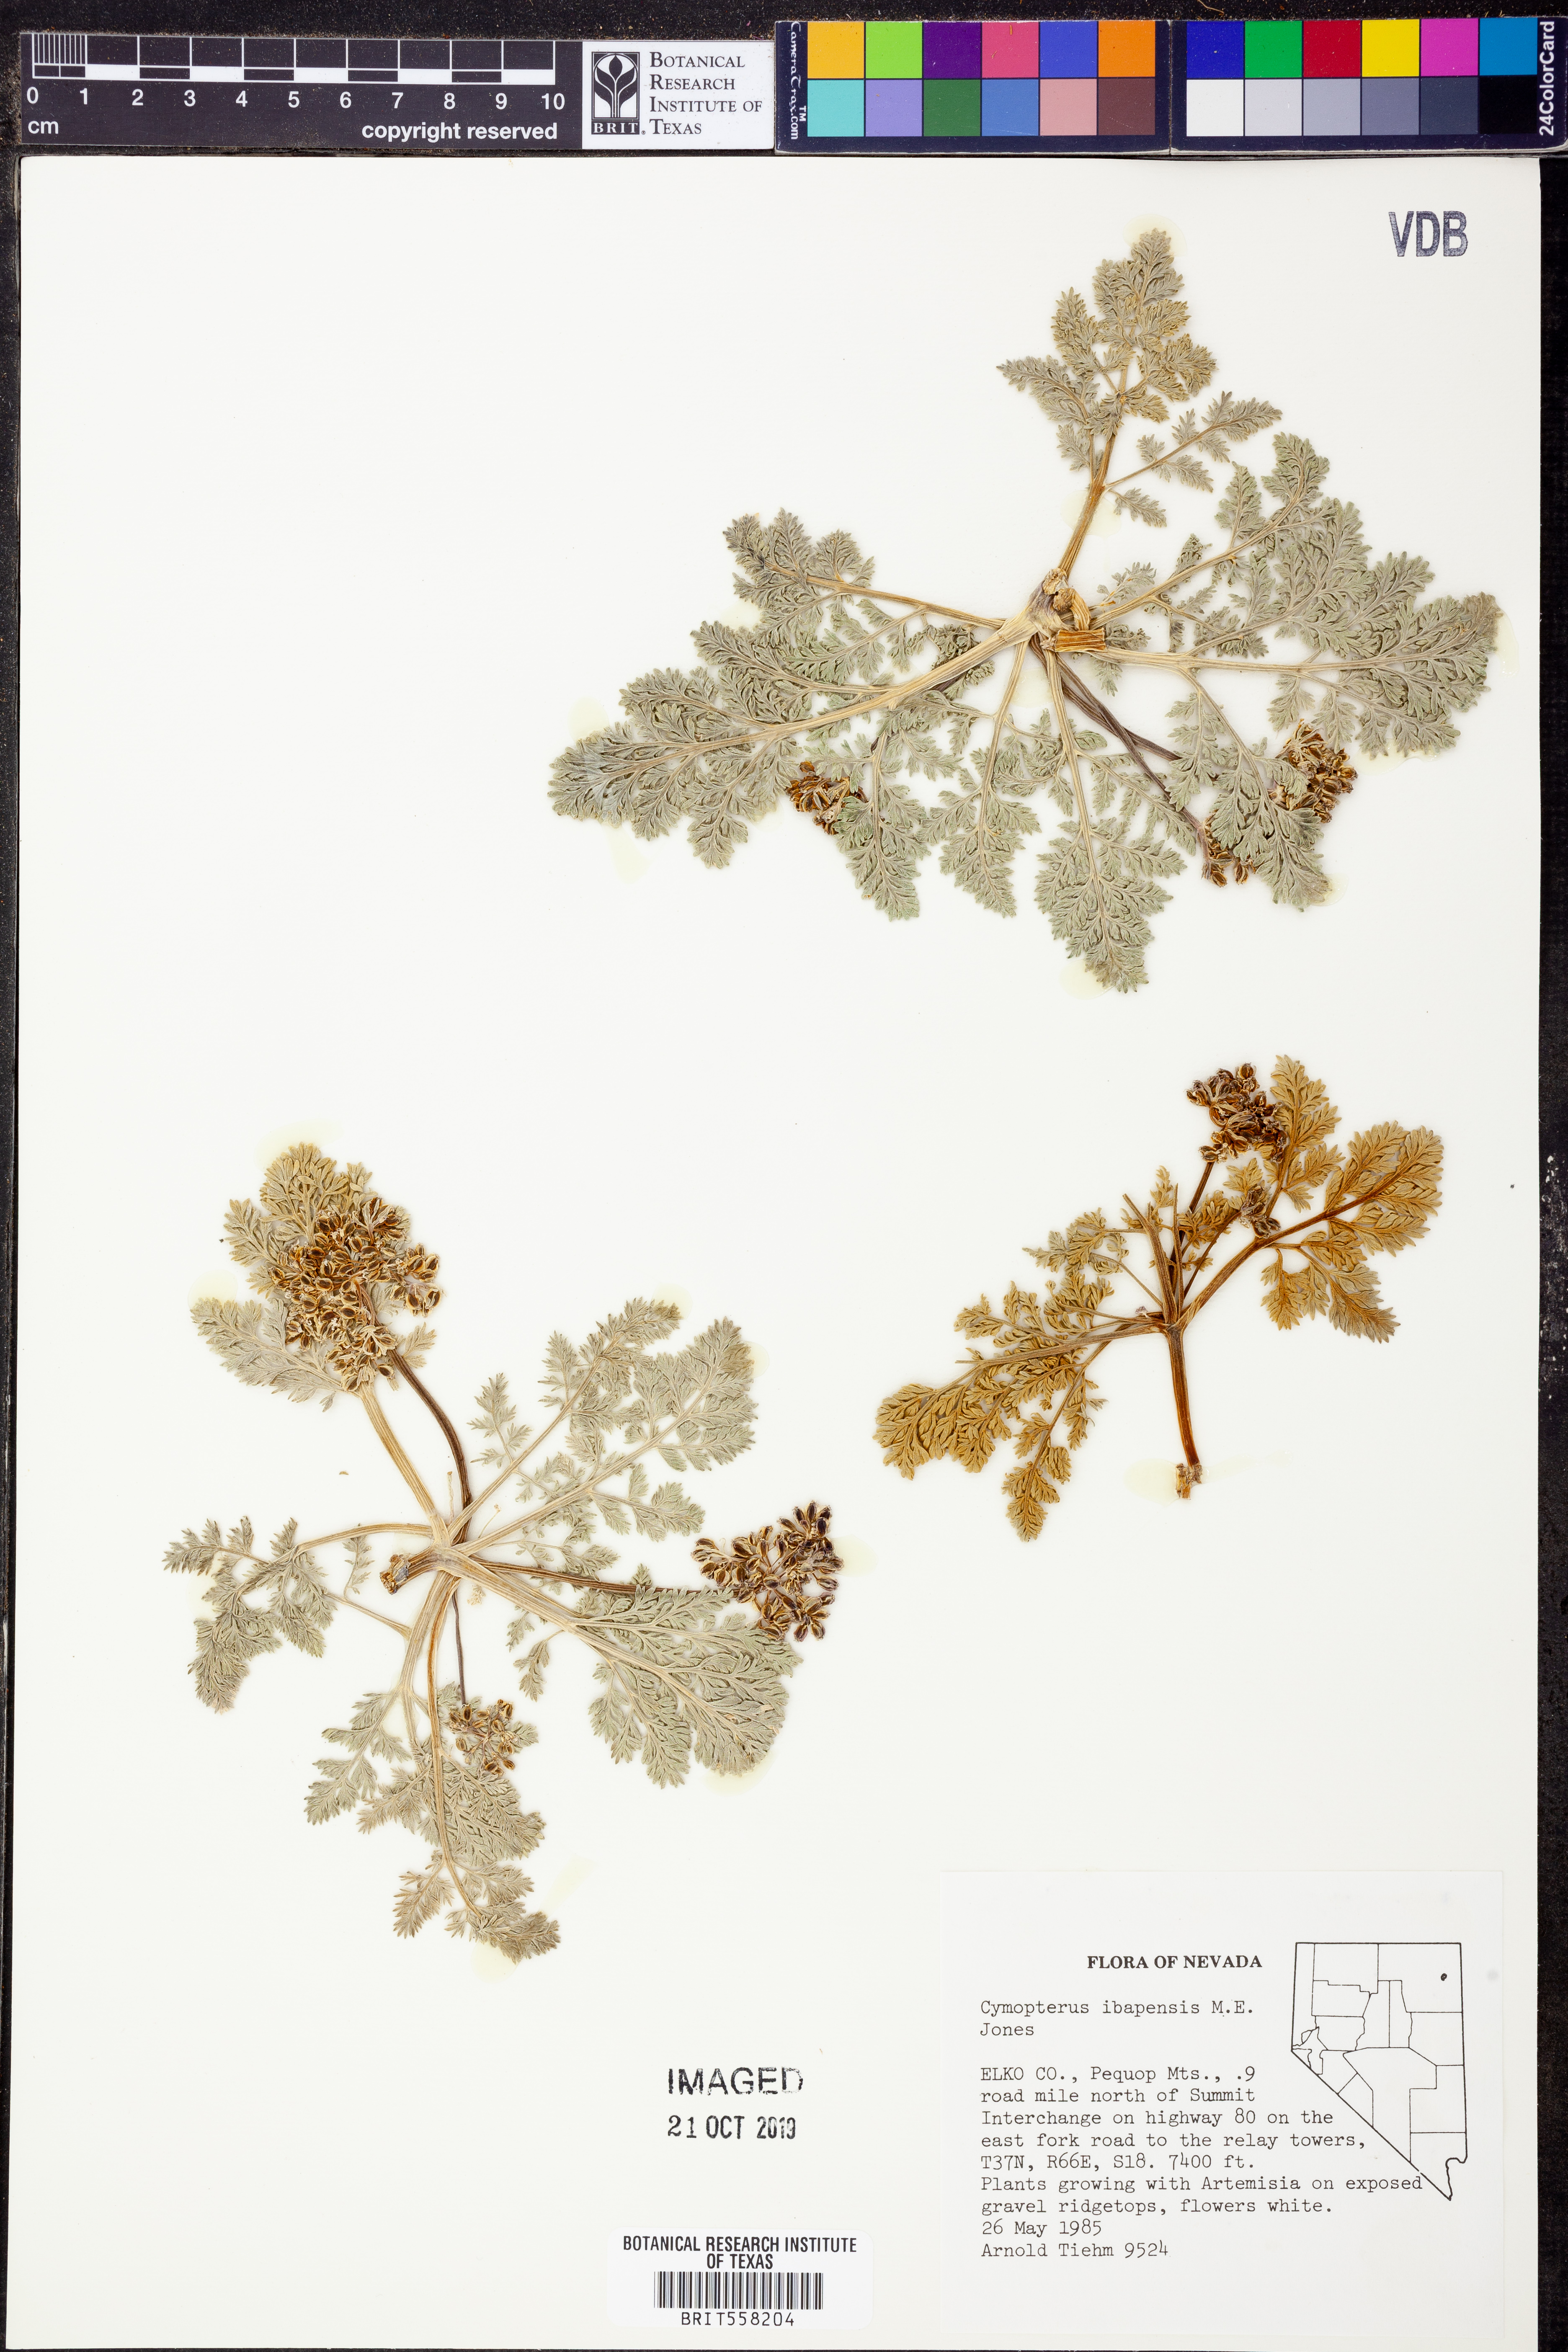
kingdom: Plantae
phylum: Tracheophyta
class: Magnoliopsida
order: Apiales
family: Apiaceae
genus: Aulospermum
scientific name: Aulospermum ibapense
